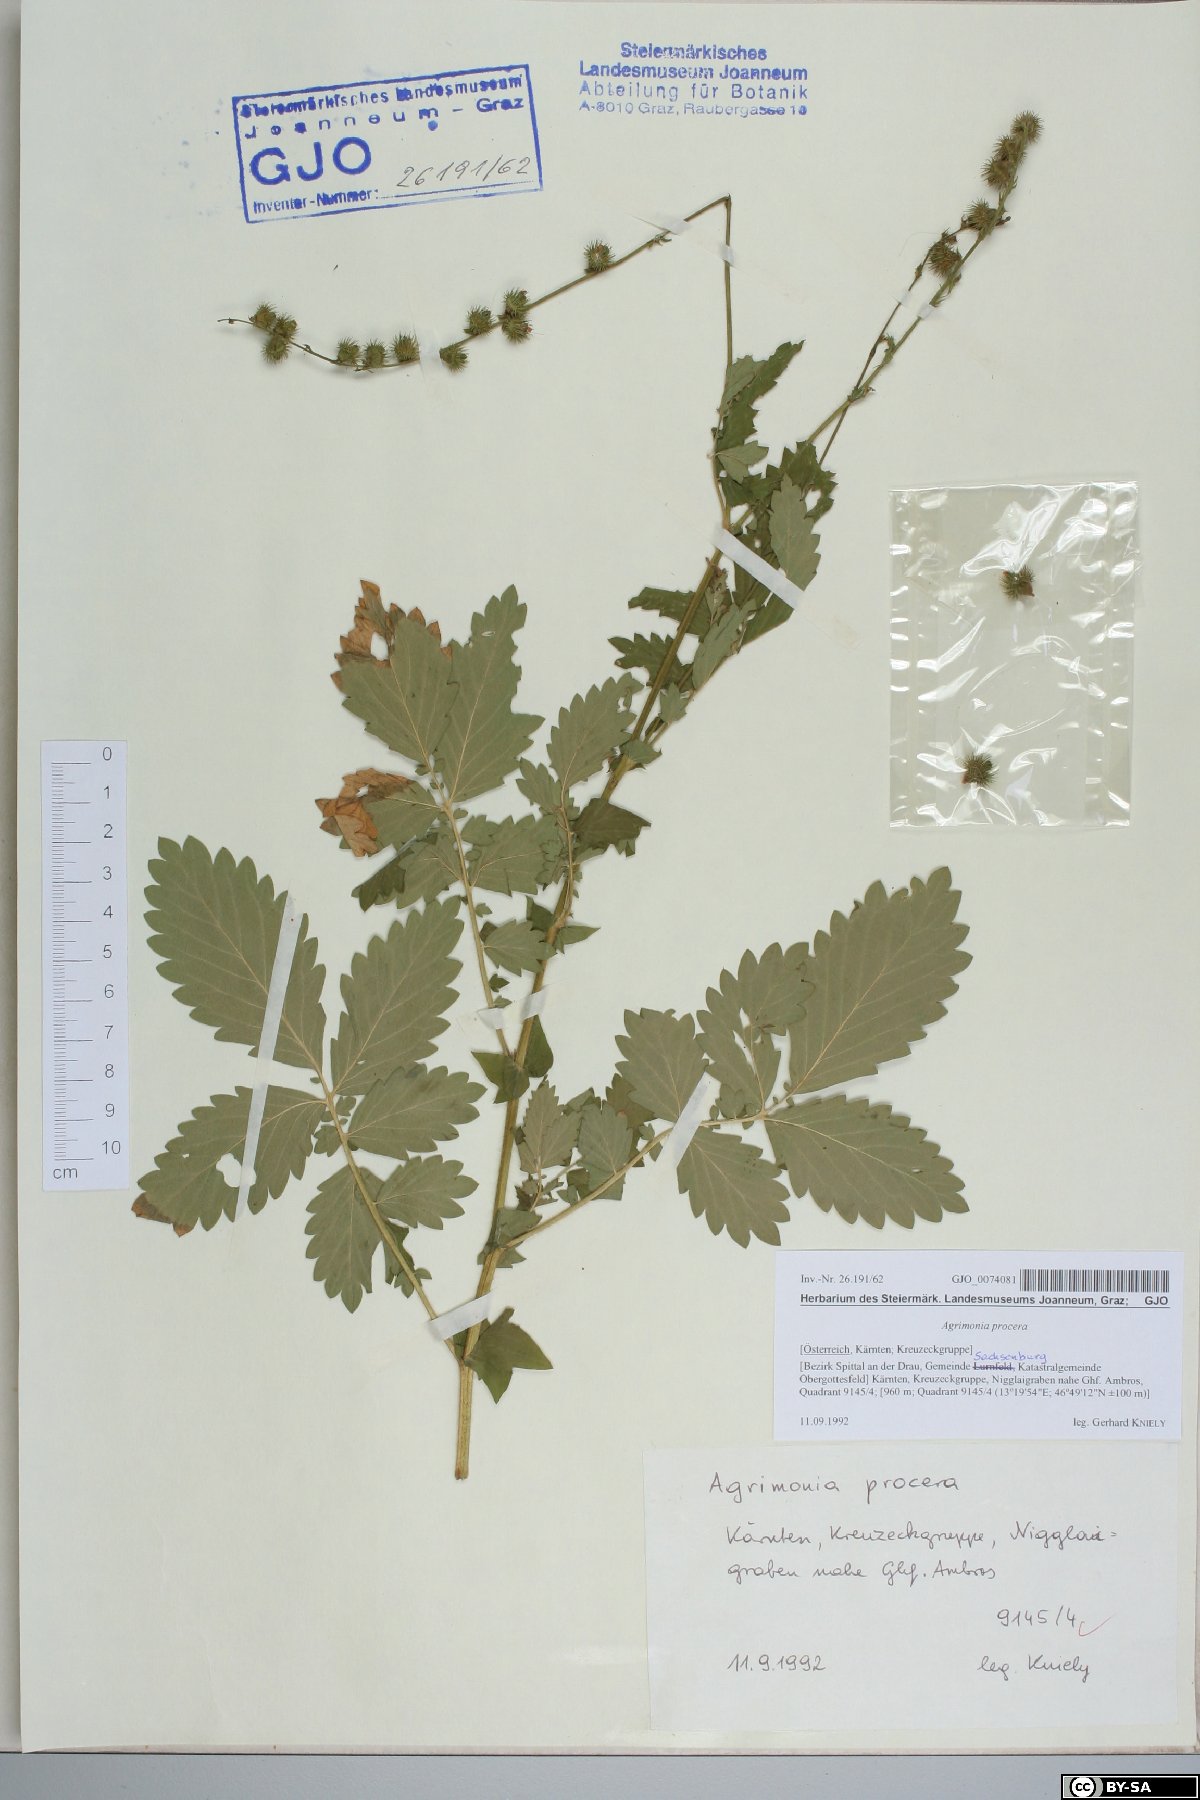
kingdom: Plantae
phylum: Tracheophyta
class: Magnoliopsida
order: Rosales
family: Rosaceae
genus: Agrimonia
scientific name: Agrimonia procera
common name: Fragrant agrimony
